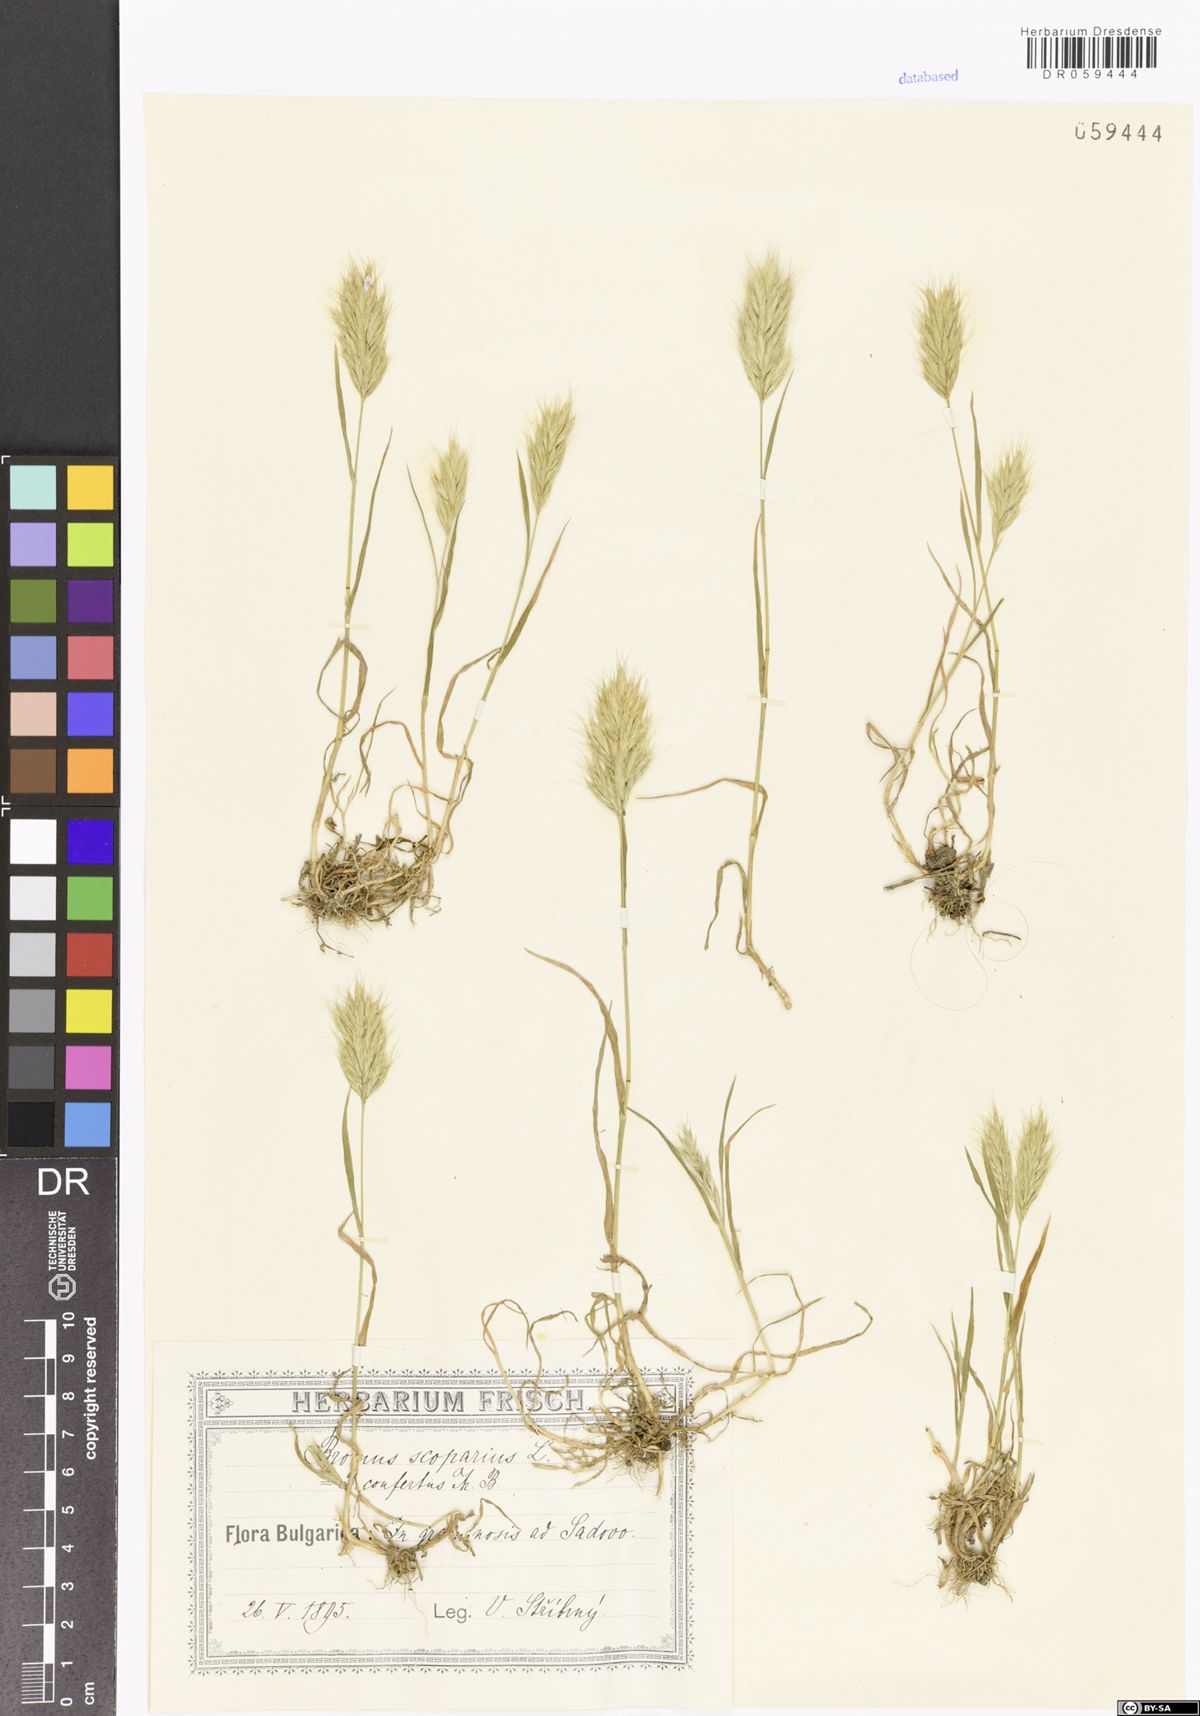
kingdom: Plantae
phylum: Tracheophyta
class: Liliopsida
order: Poales
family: Poaceae
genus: Bromus
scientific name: Bromus scoparius
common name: Broom brome
